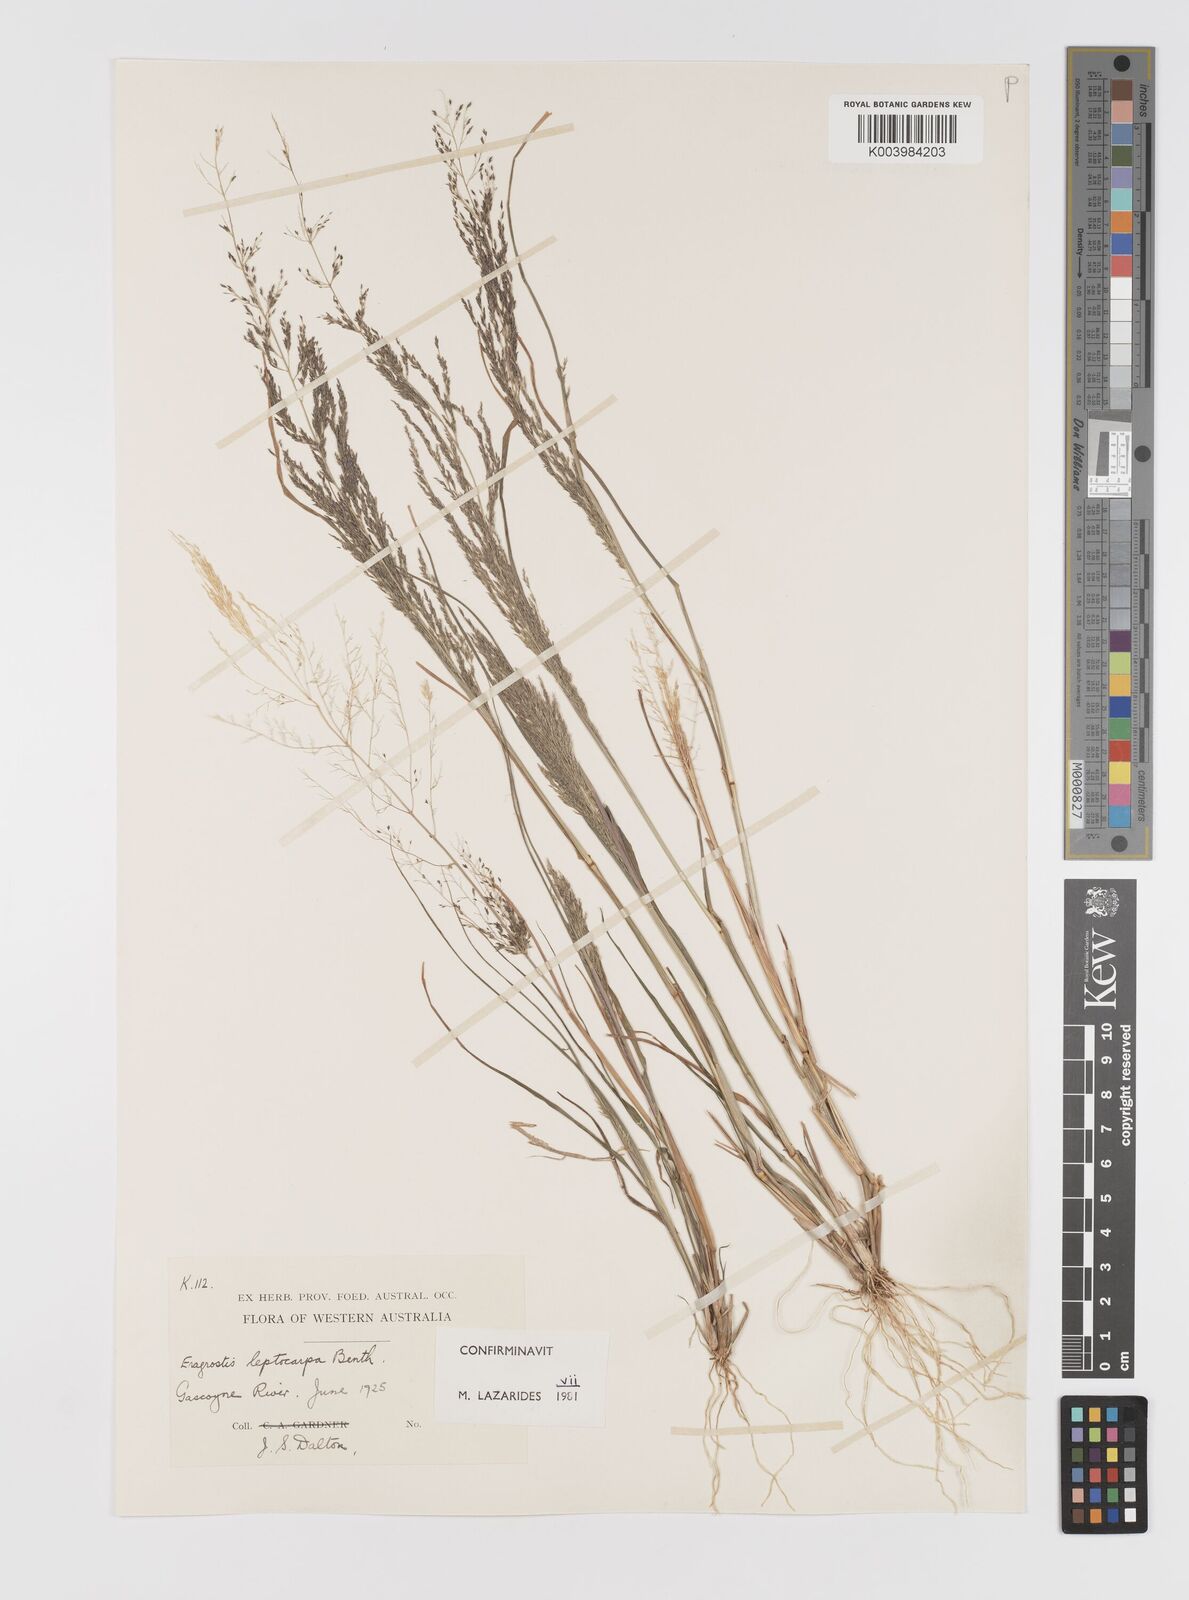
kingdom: Plantae
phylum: Tracheophyta
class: Liliopsida
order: Poales
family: Poaceae
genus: Eragrostis
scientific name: Eragrostis leptocarpa
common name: Drooping love grass
